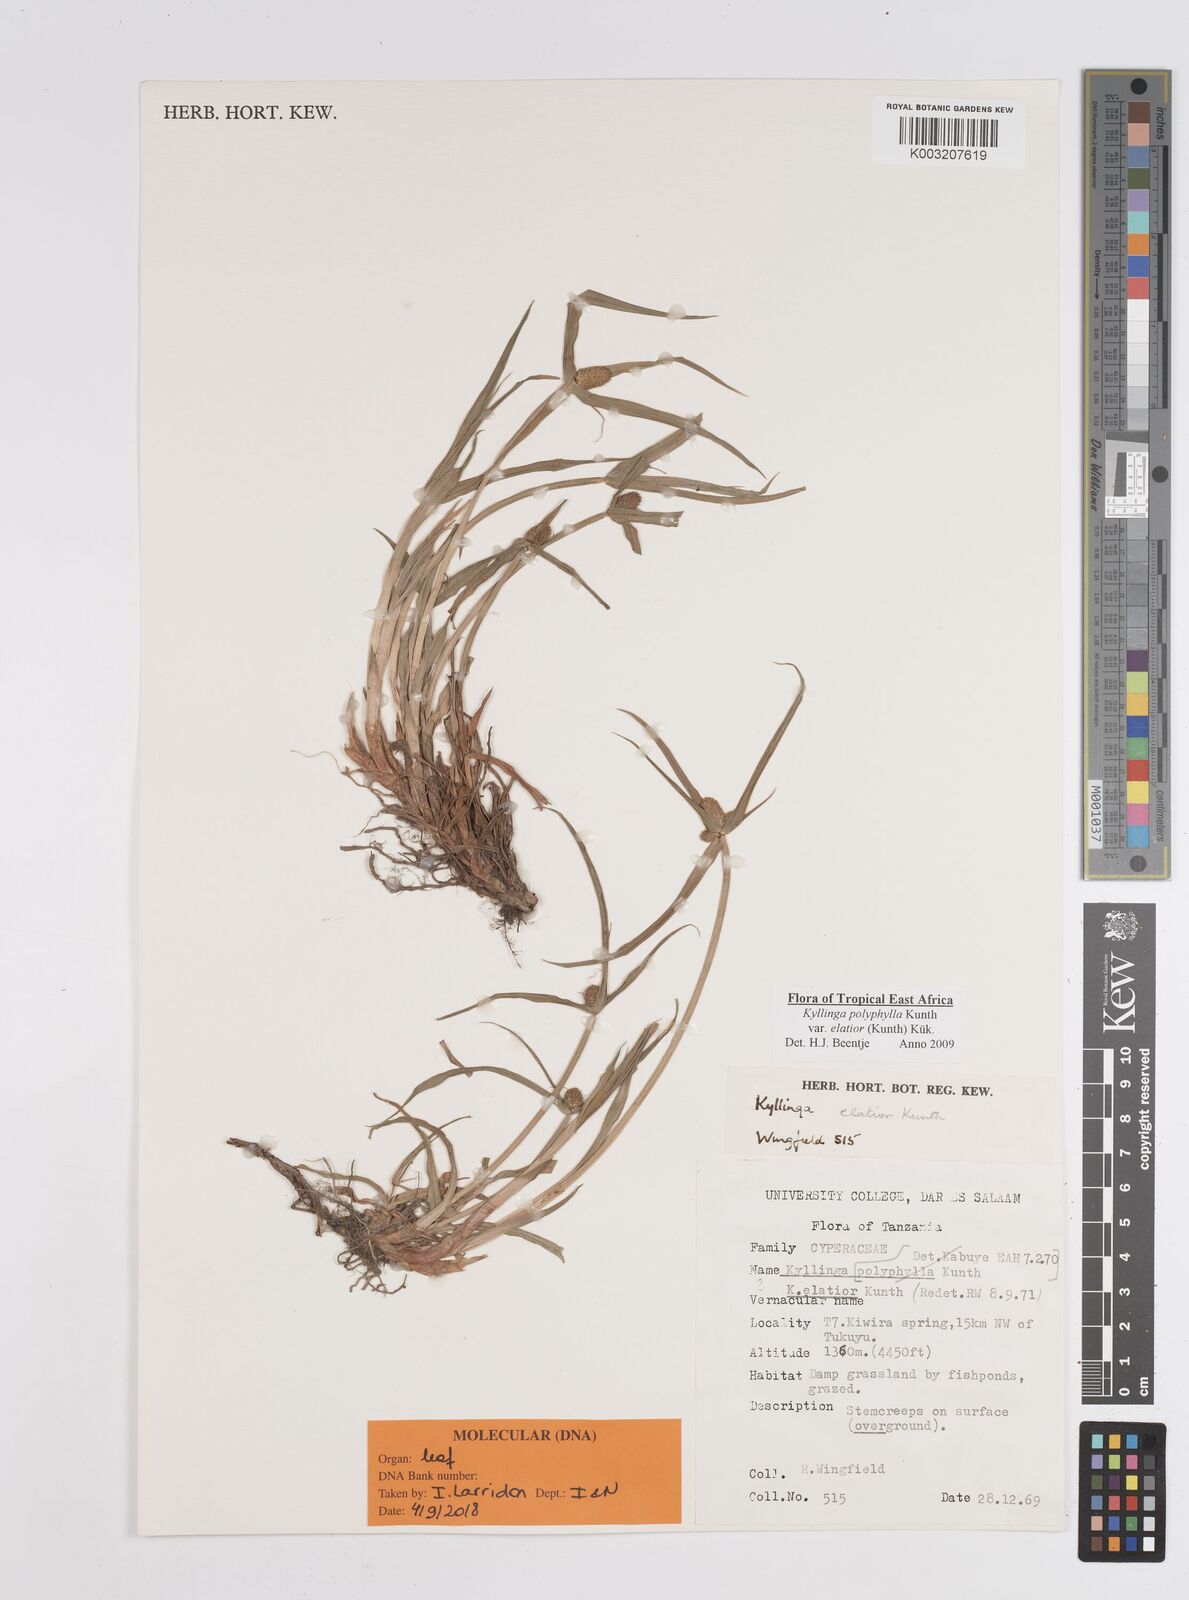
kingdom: Plantae
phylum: Tracheophyta
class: Liliopsida
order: Poales
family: Cyperaceae
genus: Cyperus
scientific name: Cyperus
